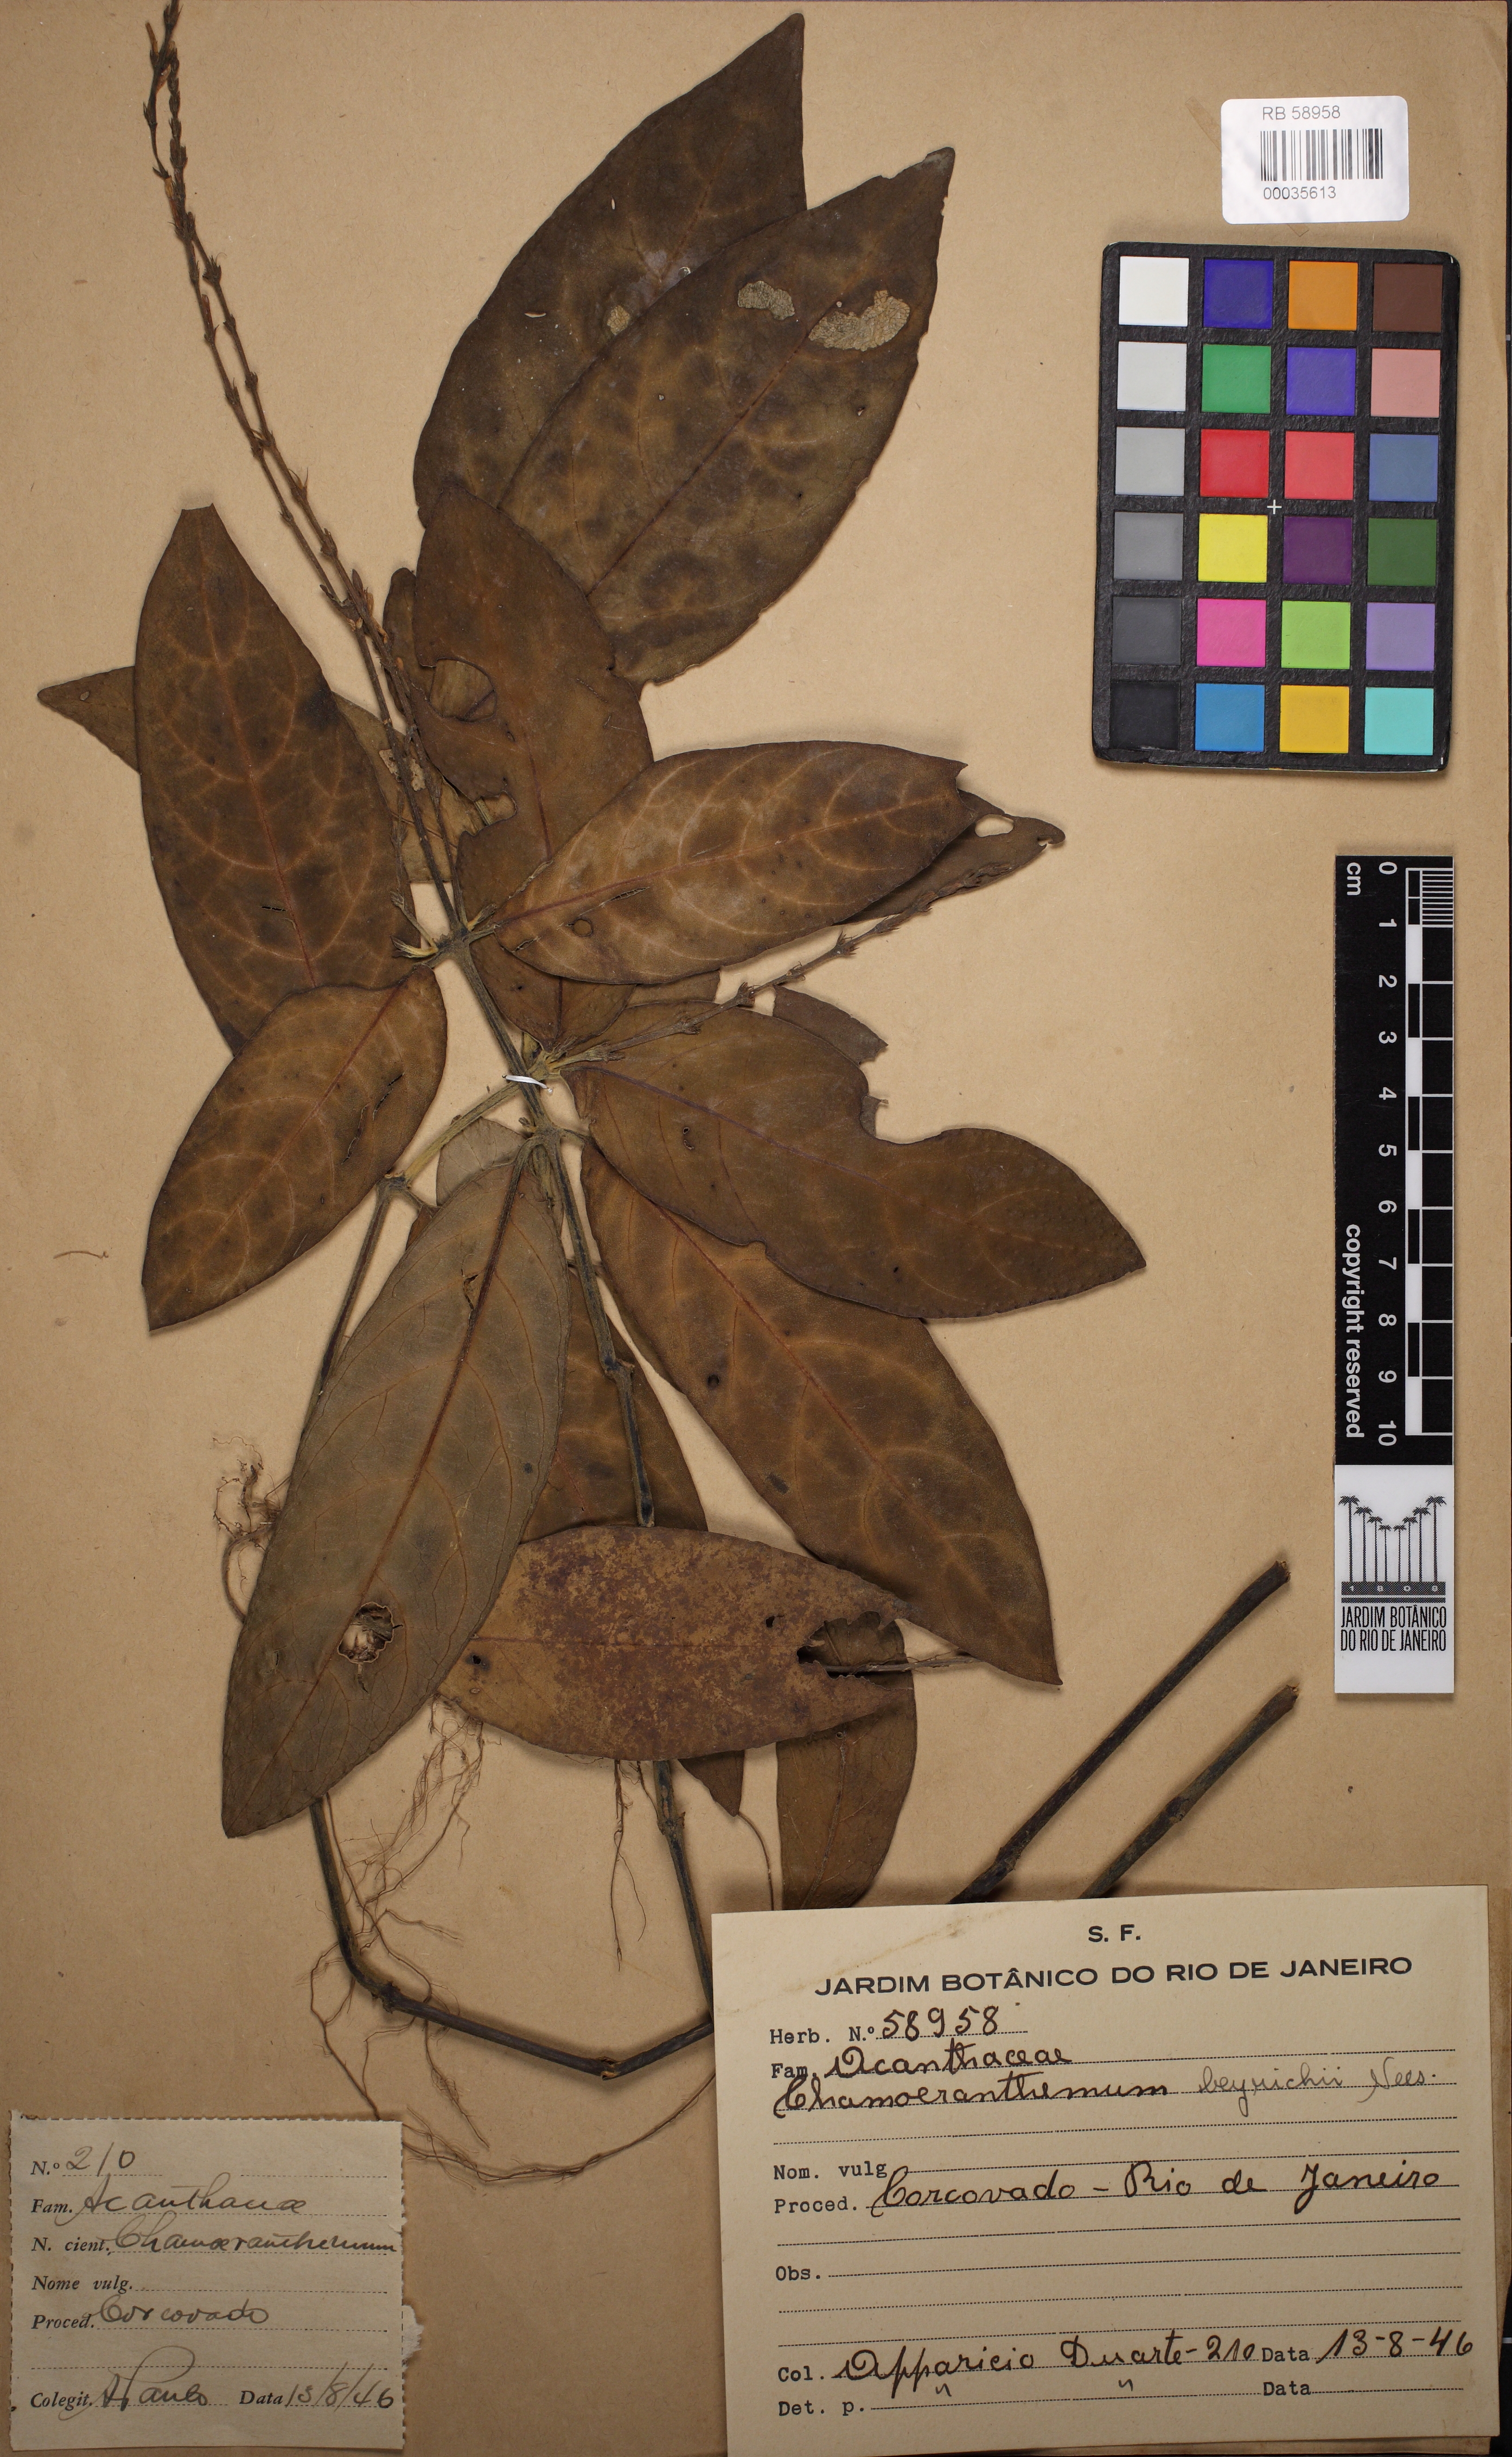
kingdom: Plantae
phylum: Tracheophyta
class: Magnoliopsida
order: Lamiales
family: Acanthaceae
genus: Chamaeranthemum
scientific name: Chamaeranthemum beyrichii
